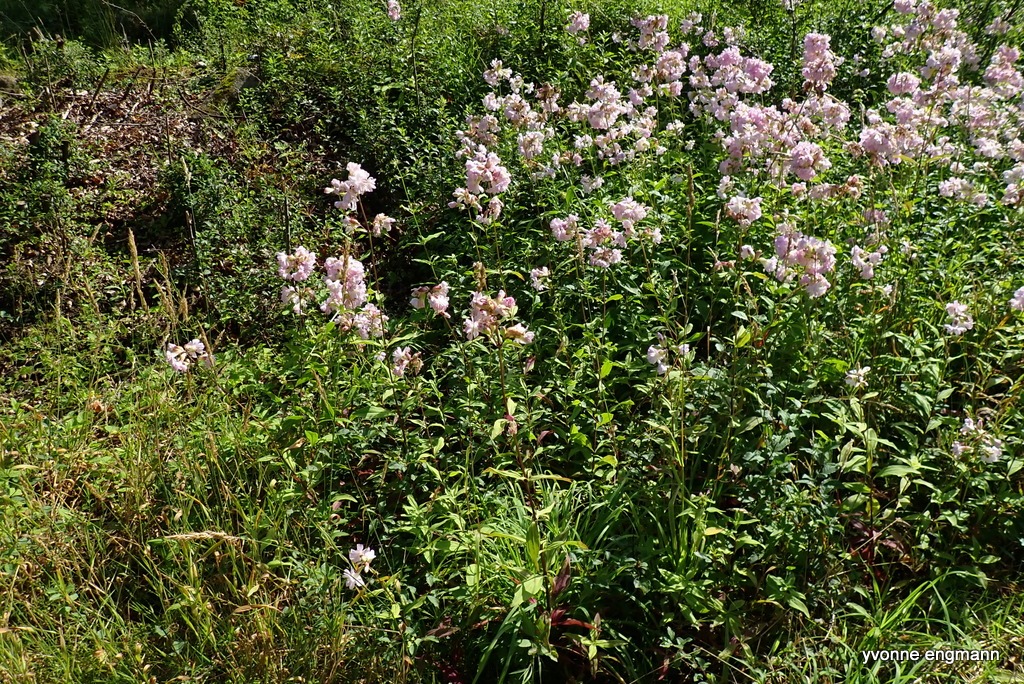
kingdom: Plantae
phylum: Tracheophyta
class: Magnoliopsida
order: Caryophyllales
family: Caryophyllaceae
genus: Saponaria
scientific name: Saponaria officinalis
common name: Sæbeurt
